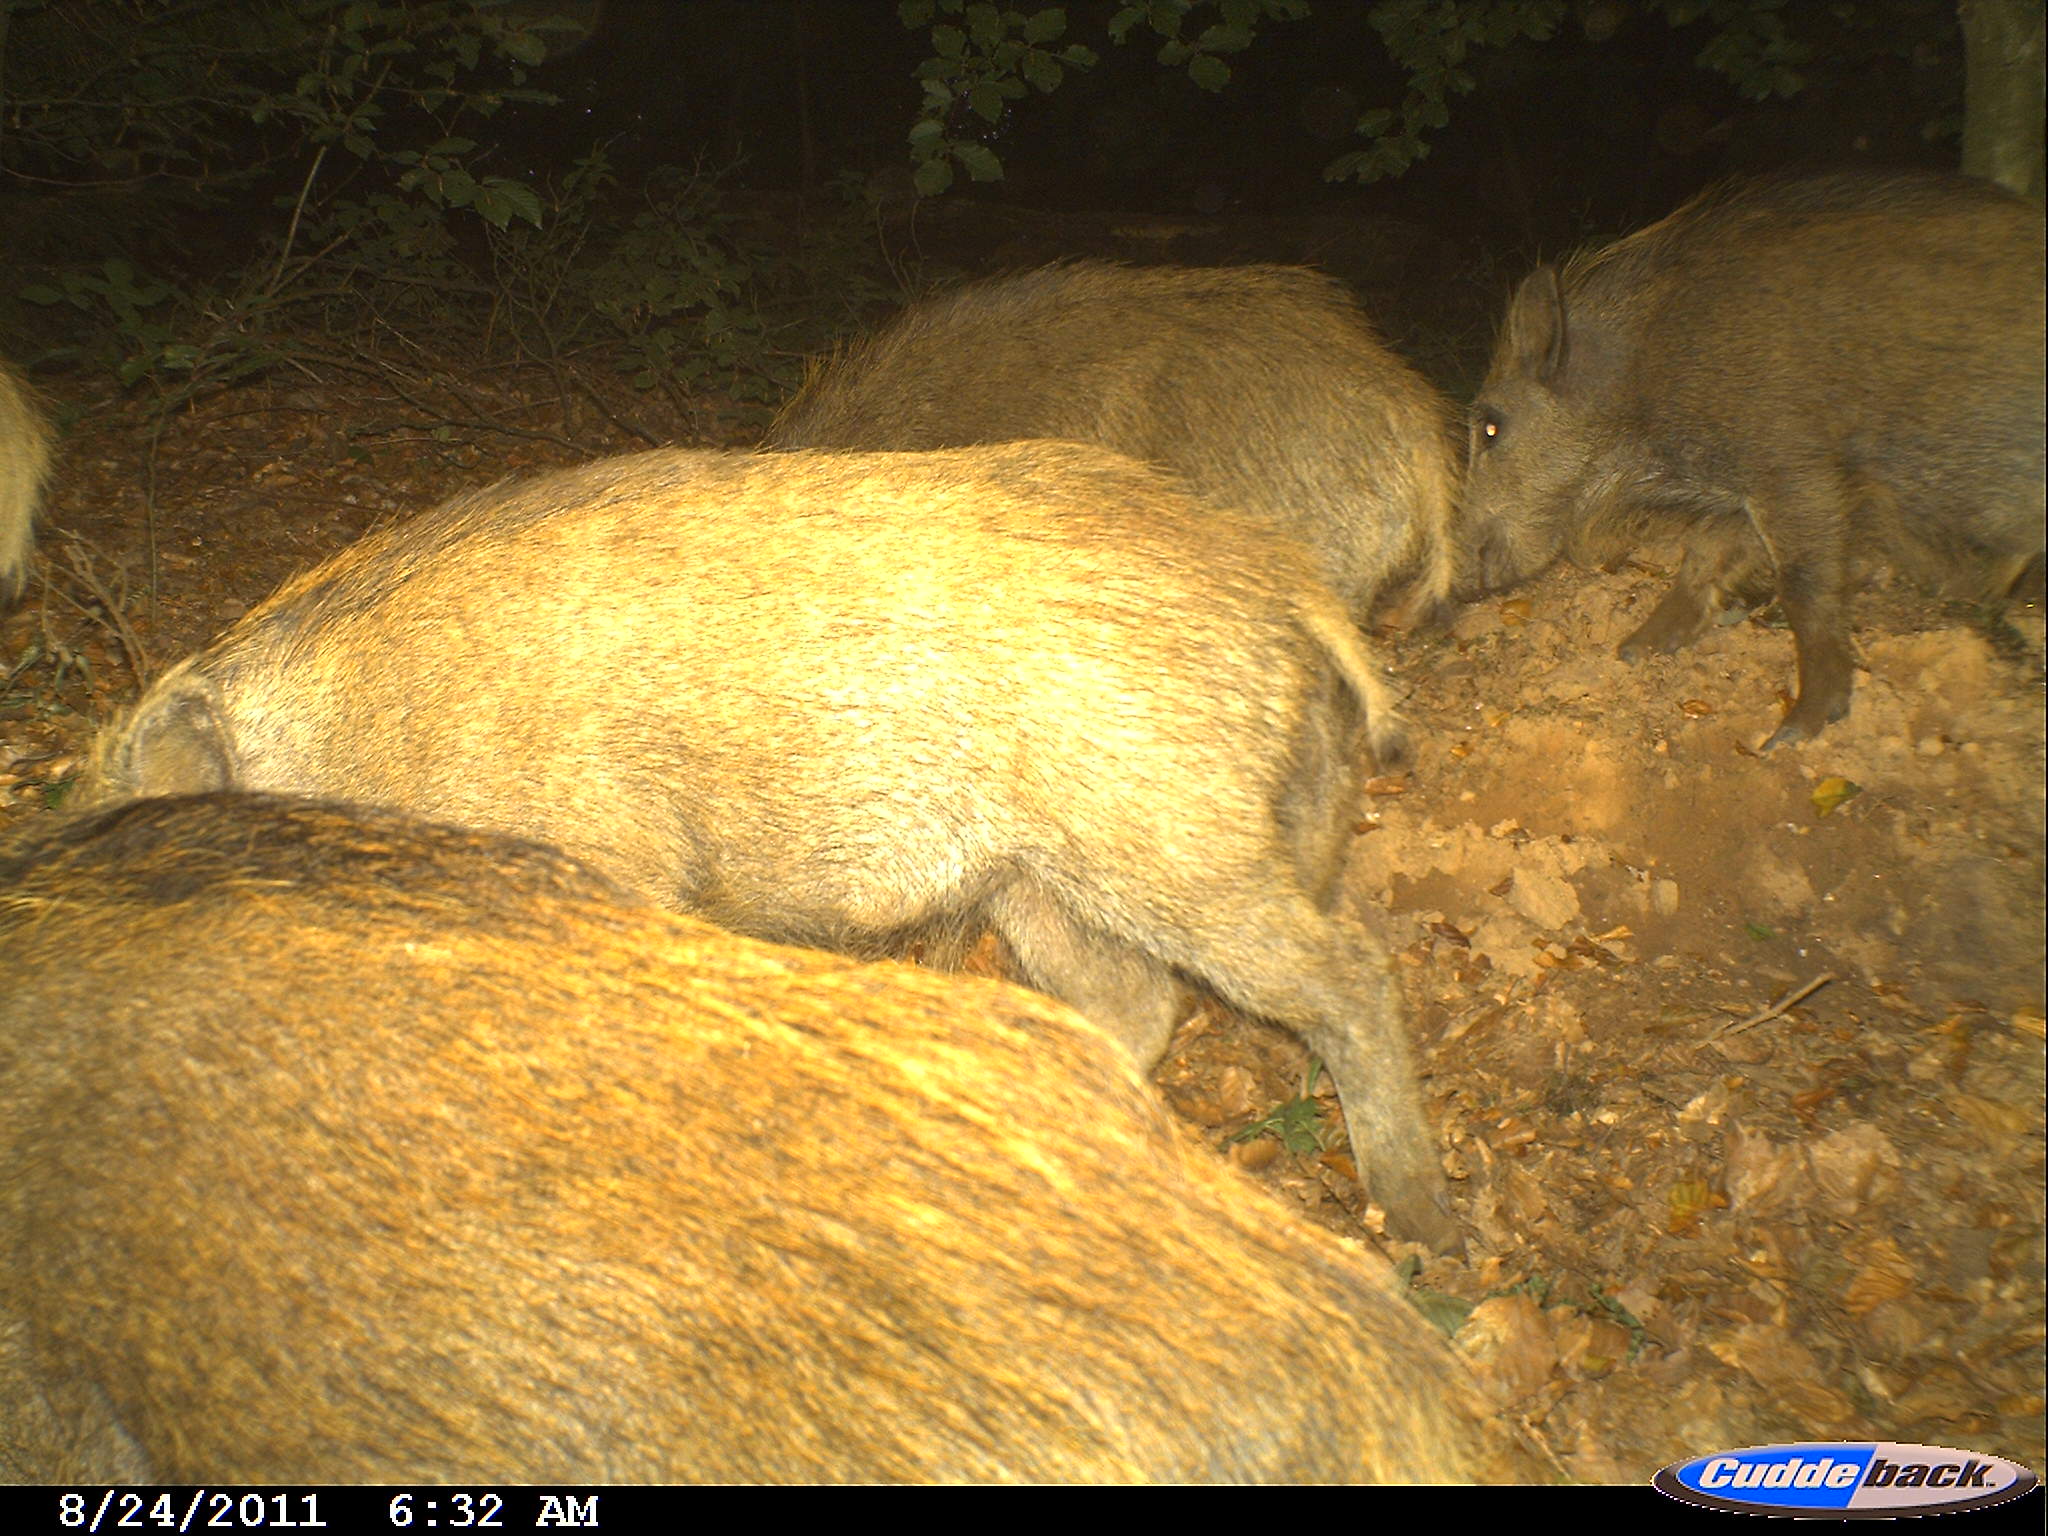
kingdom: Animalia
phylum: Chordata
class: Mammalia
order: Artiodactyla
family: Suidae
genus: Sus
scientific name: Sus scrofa
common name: Wild boar
